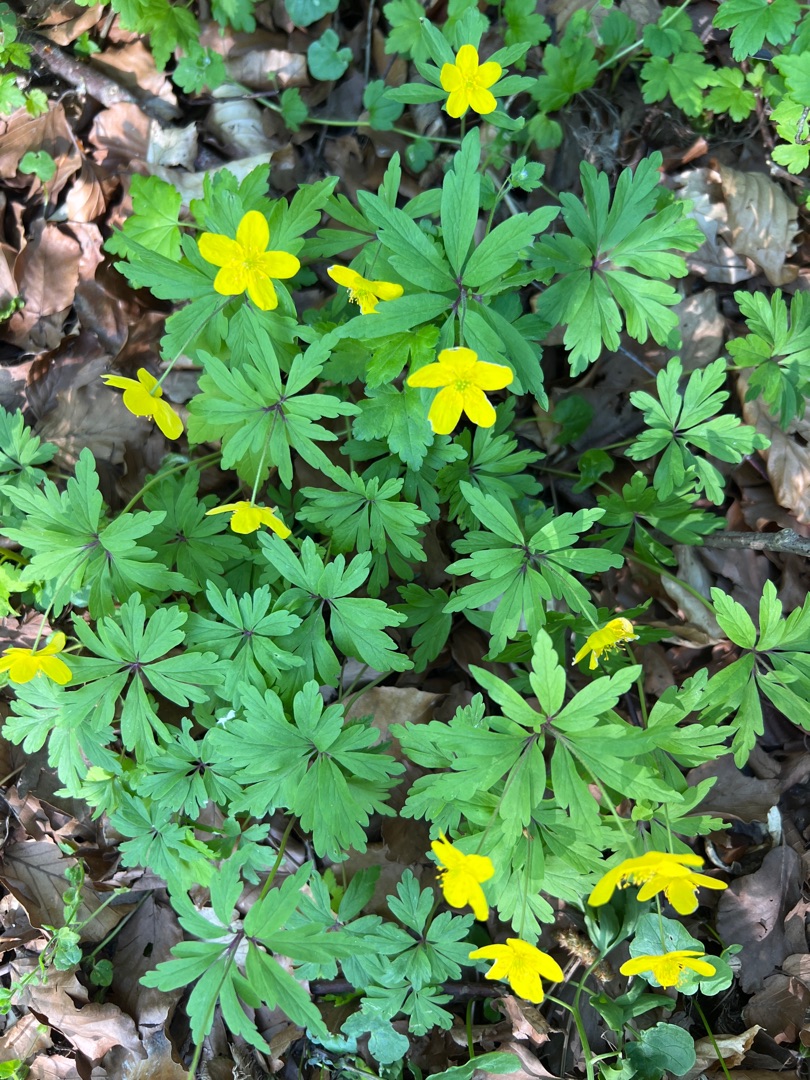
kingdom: Plantae
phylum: Tracheophyta
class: Magnoliopsida
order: Ranunculales
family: Ranunculaceae
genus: Anemone
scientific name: Anemone ranunculoides
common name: Gul anemone
